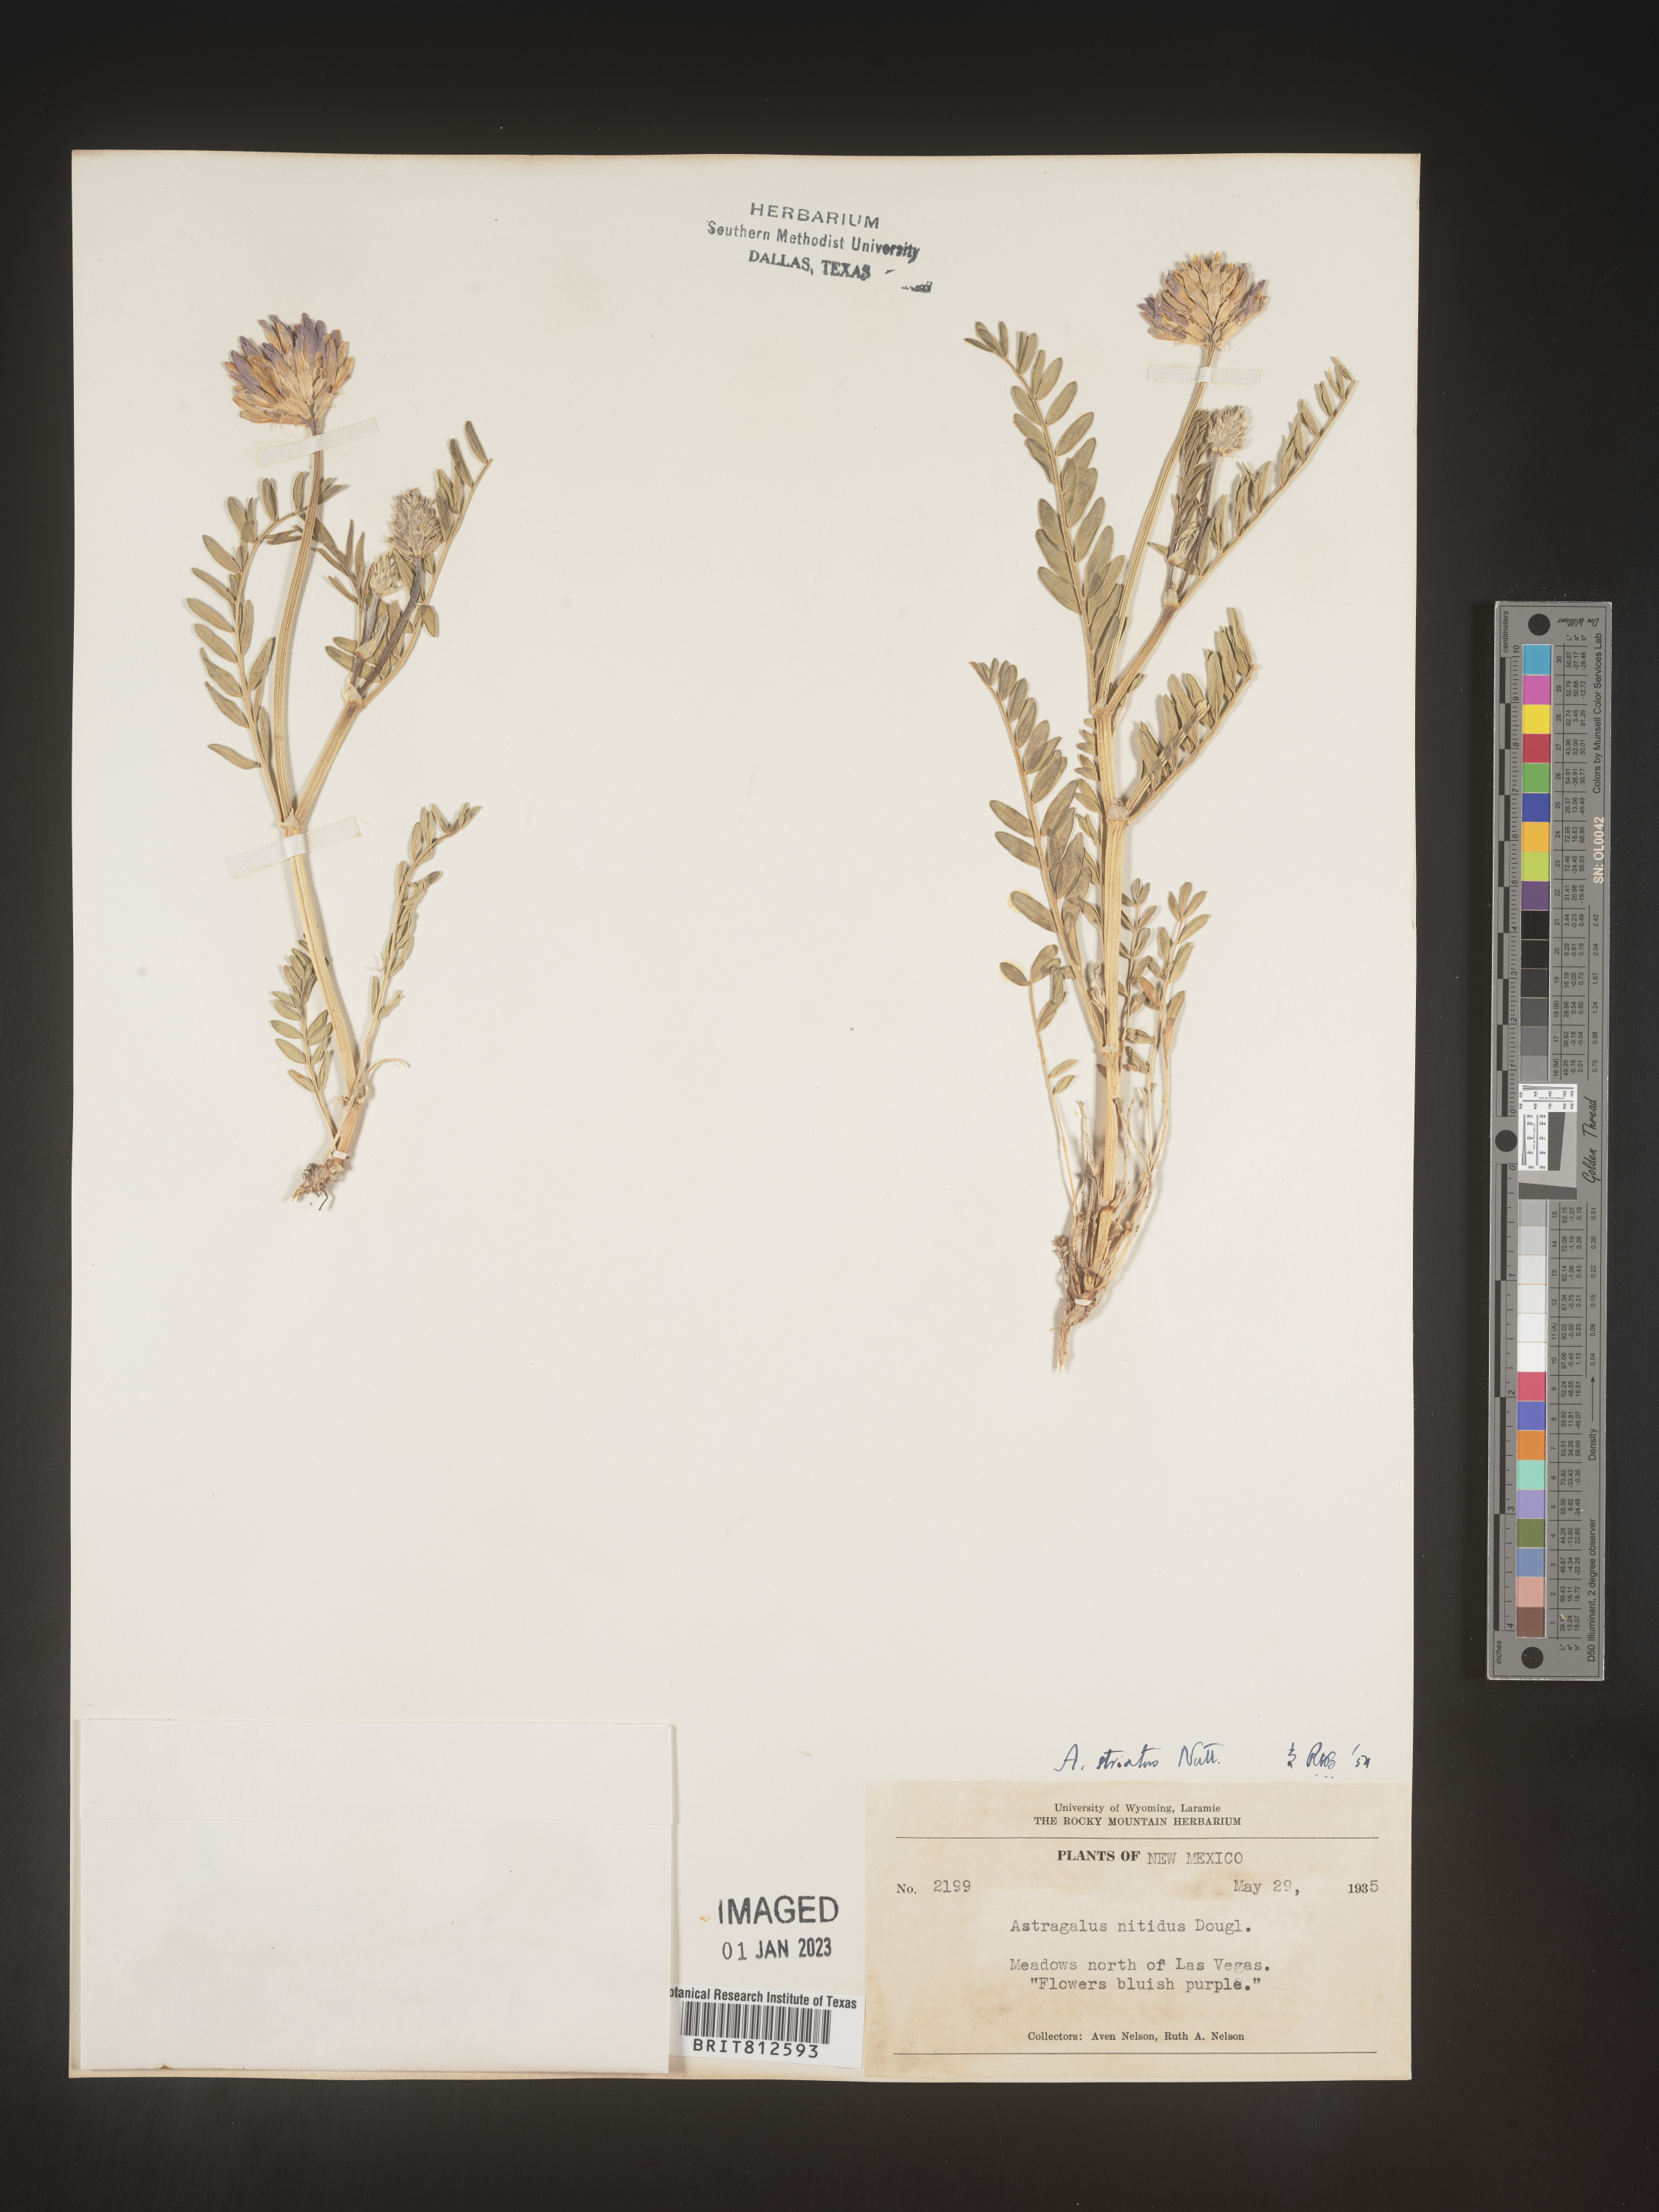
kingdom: Plantae
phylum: Tracheophyta
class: Magnoliopsida
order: Fabales
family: Fabaceae
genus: Astragalus
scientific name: Astragalus laxmannii
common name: Laxmann's milk-vetch
